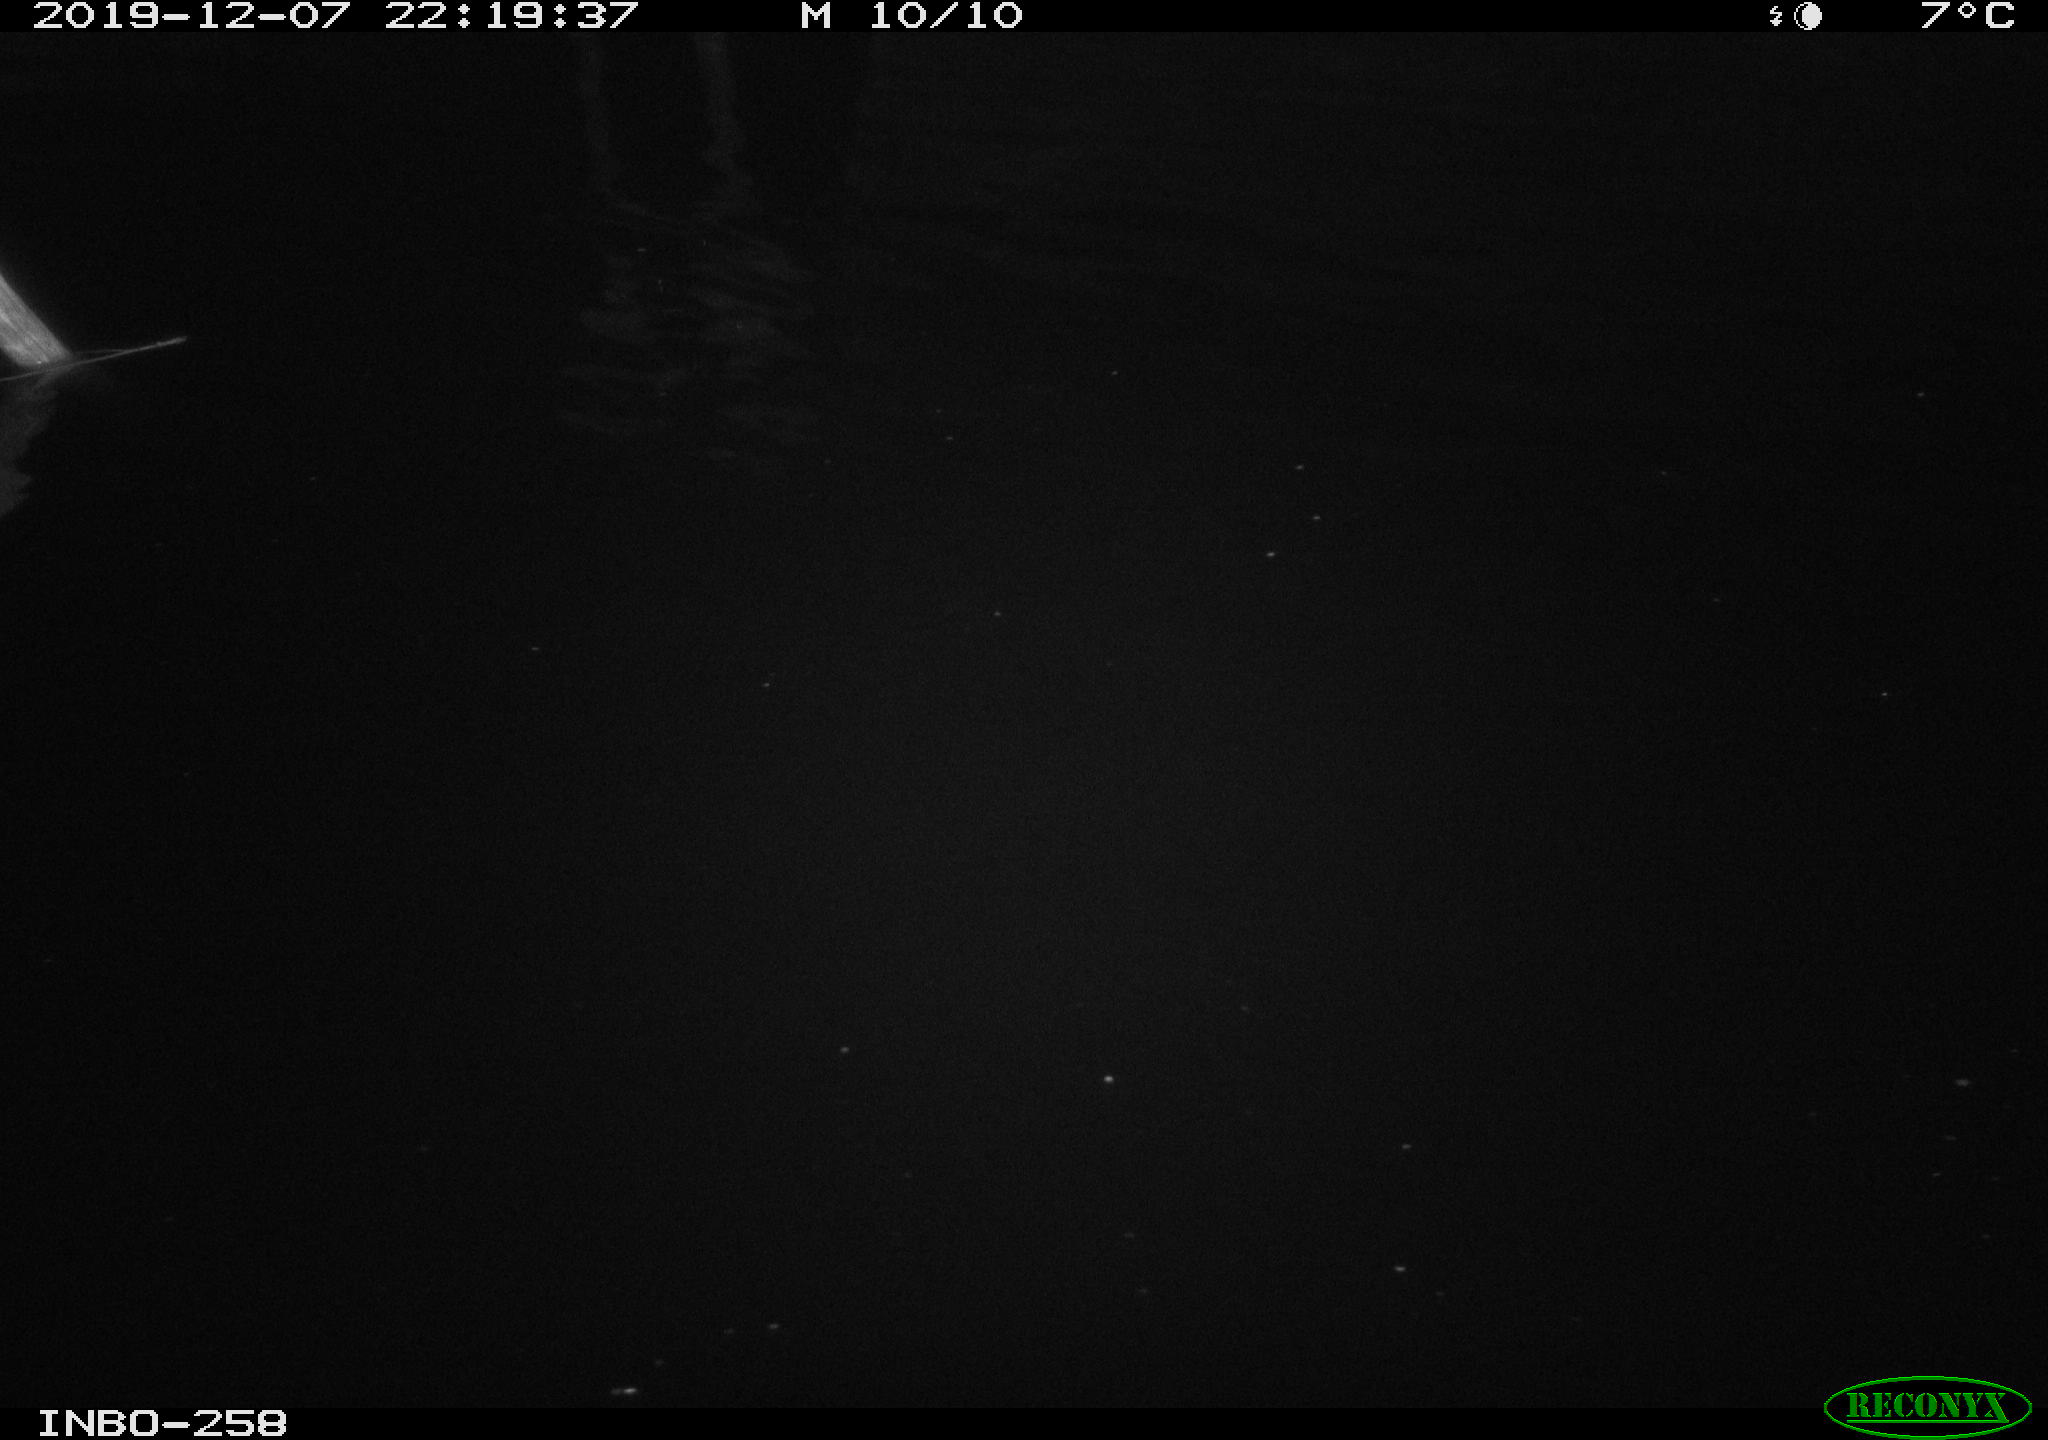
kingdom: Animalia
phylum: Chordata
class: Aves
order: Anseriformes
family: Anatidae
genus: Anas
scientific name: Anas platyrhynchos
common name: Mallard
